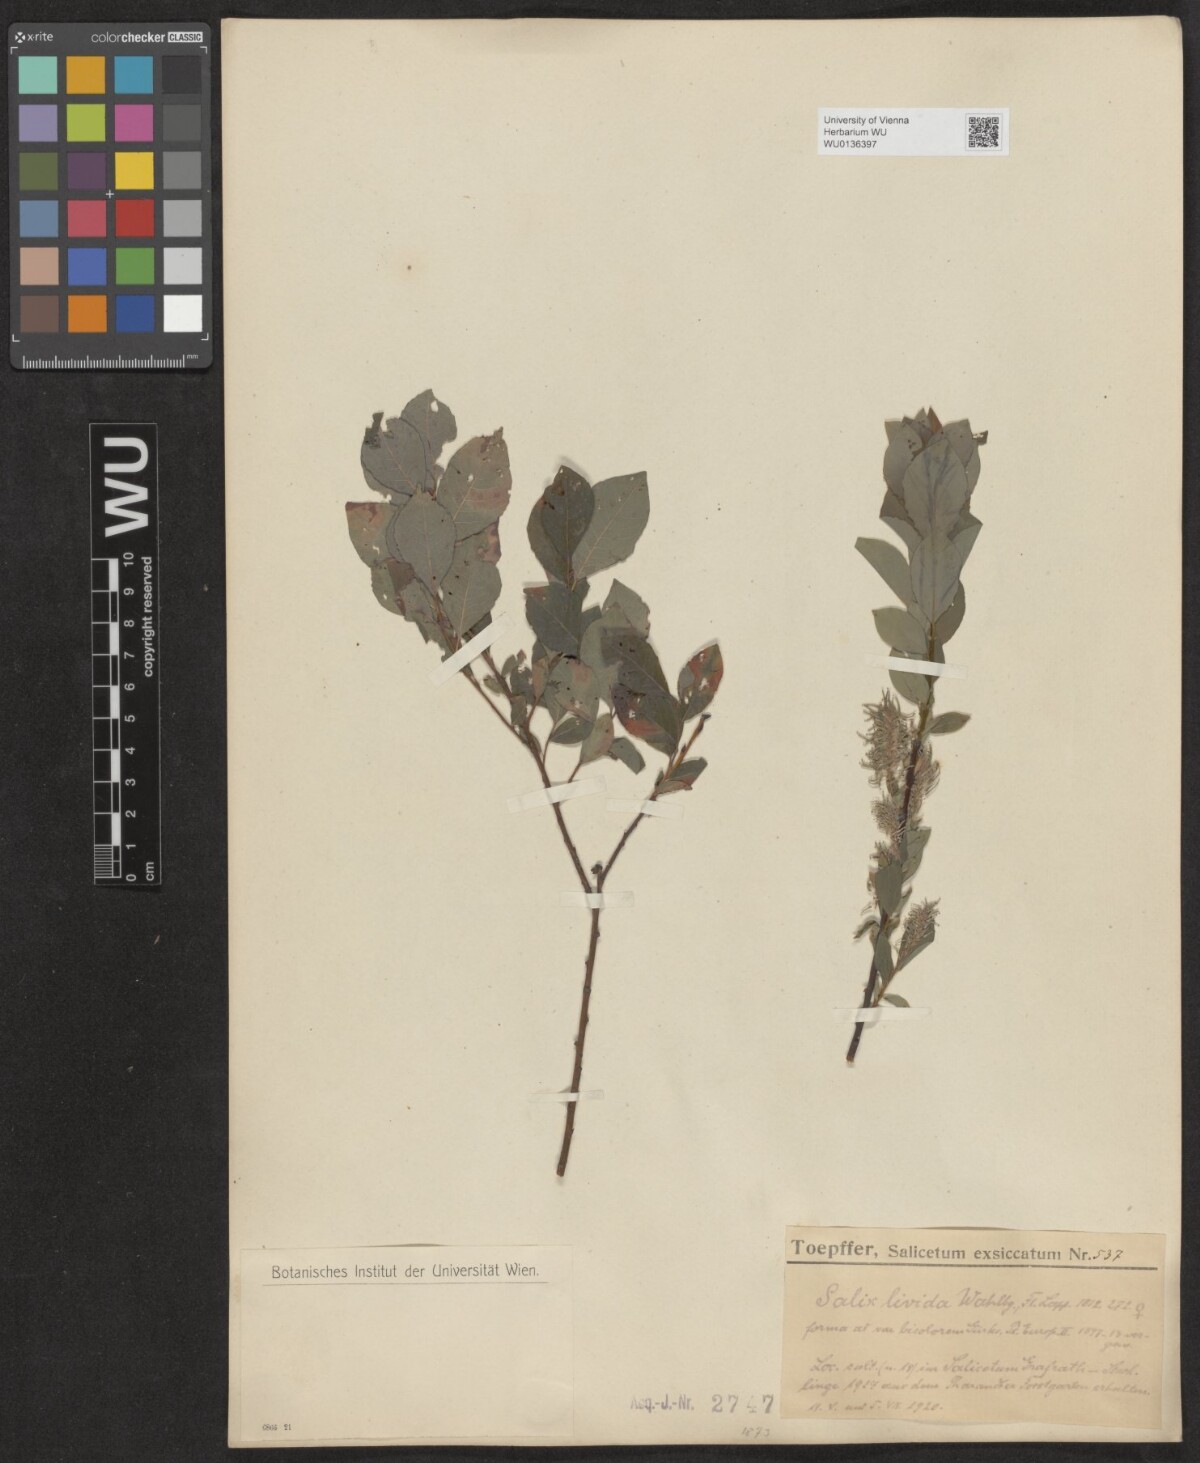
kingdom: Plantae
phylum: Tracheophyta
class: Magnoliopsida
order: Malpighiales
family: Salicaceae
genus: Salix
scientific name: Salix lanata
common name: Woolly willow
